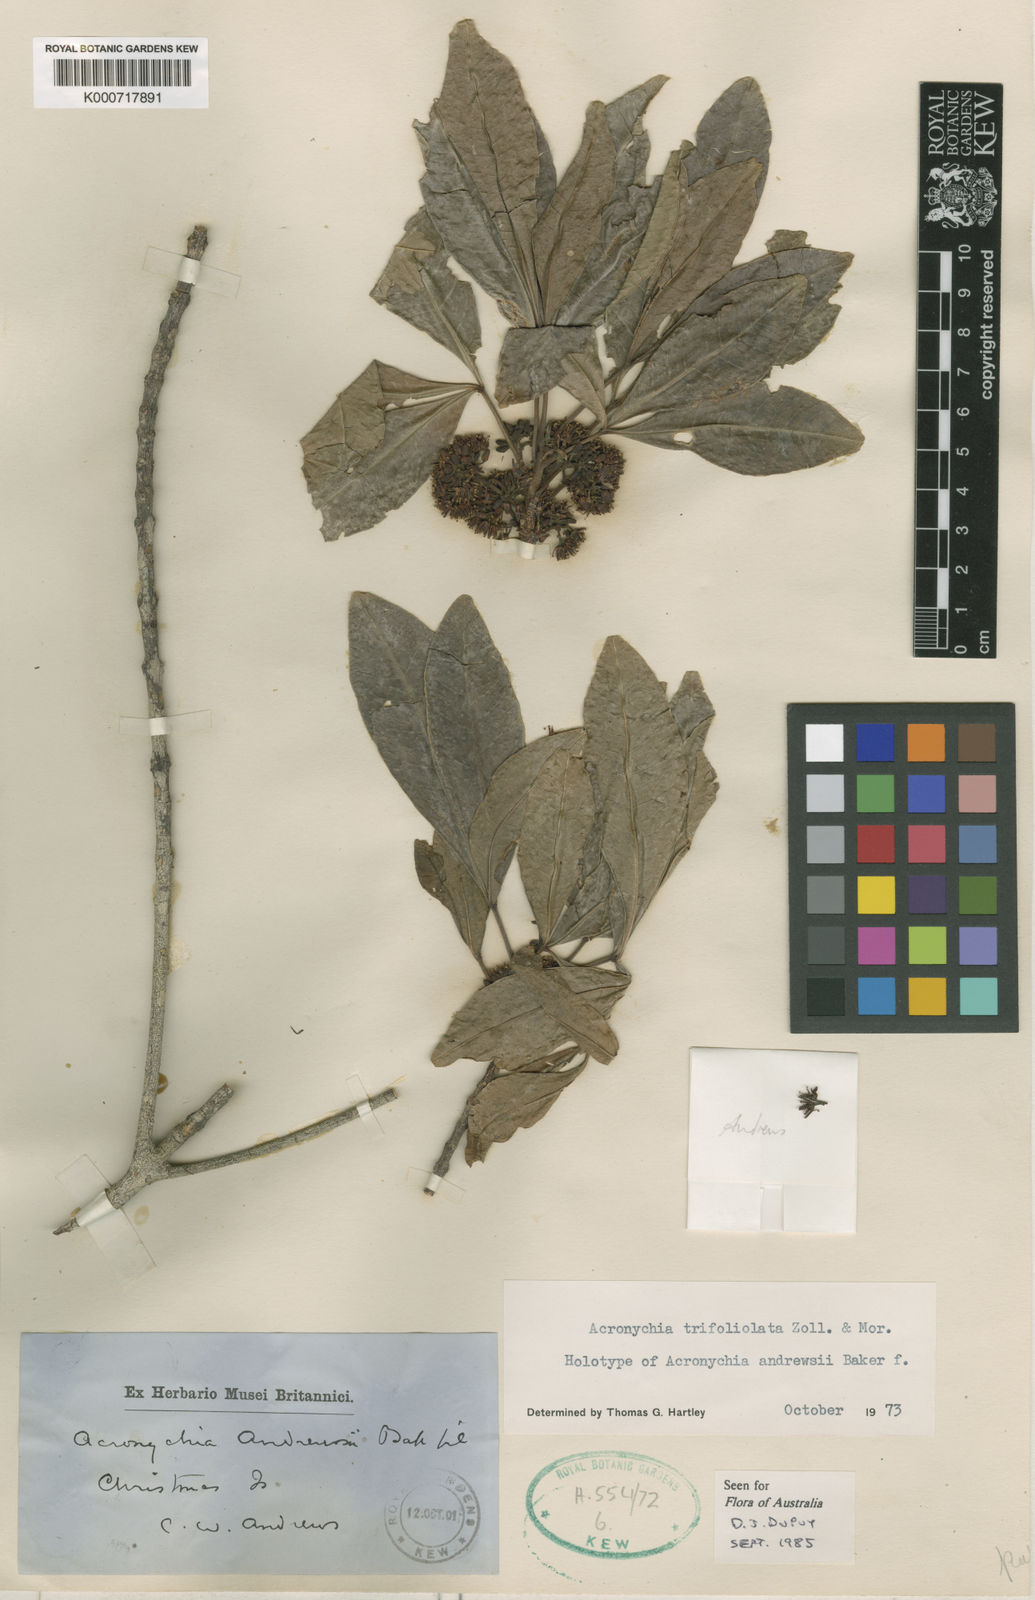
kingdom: Plantae
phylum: Tracheophyta
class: Magnoliopsida
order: Sapindales
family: Rutaceae
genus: Acronychia
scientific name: Acronychia trifoliolata
